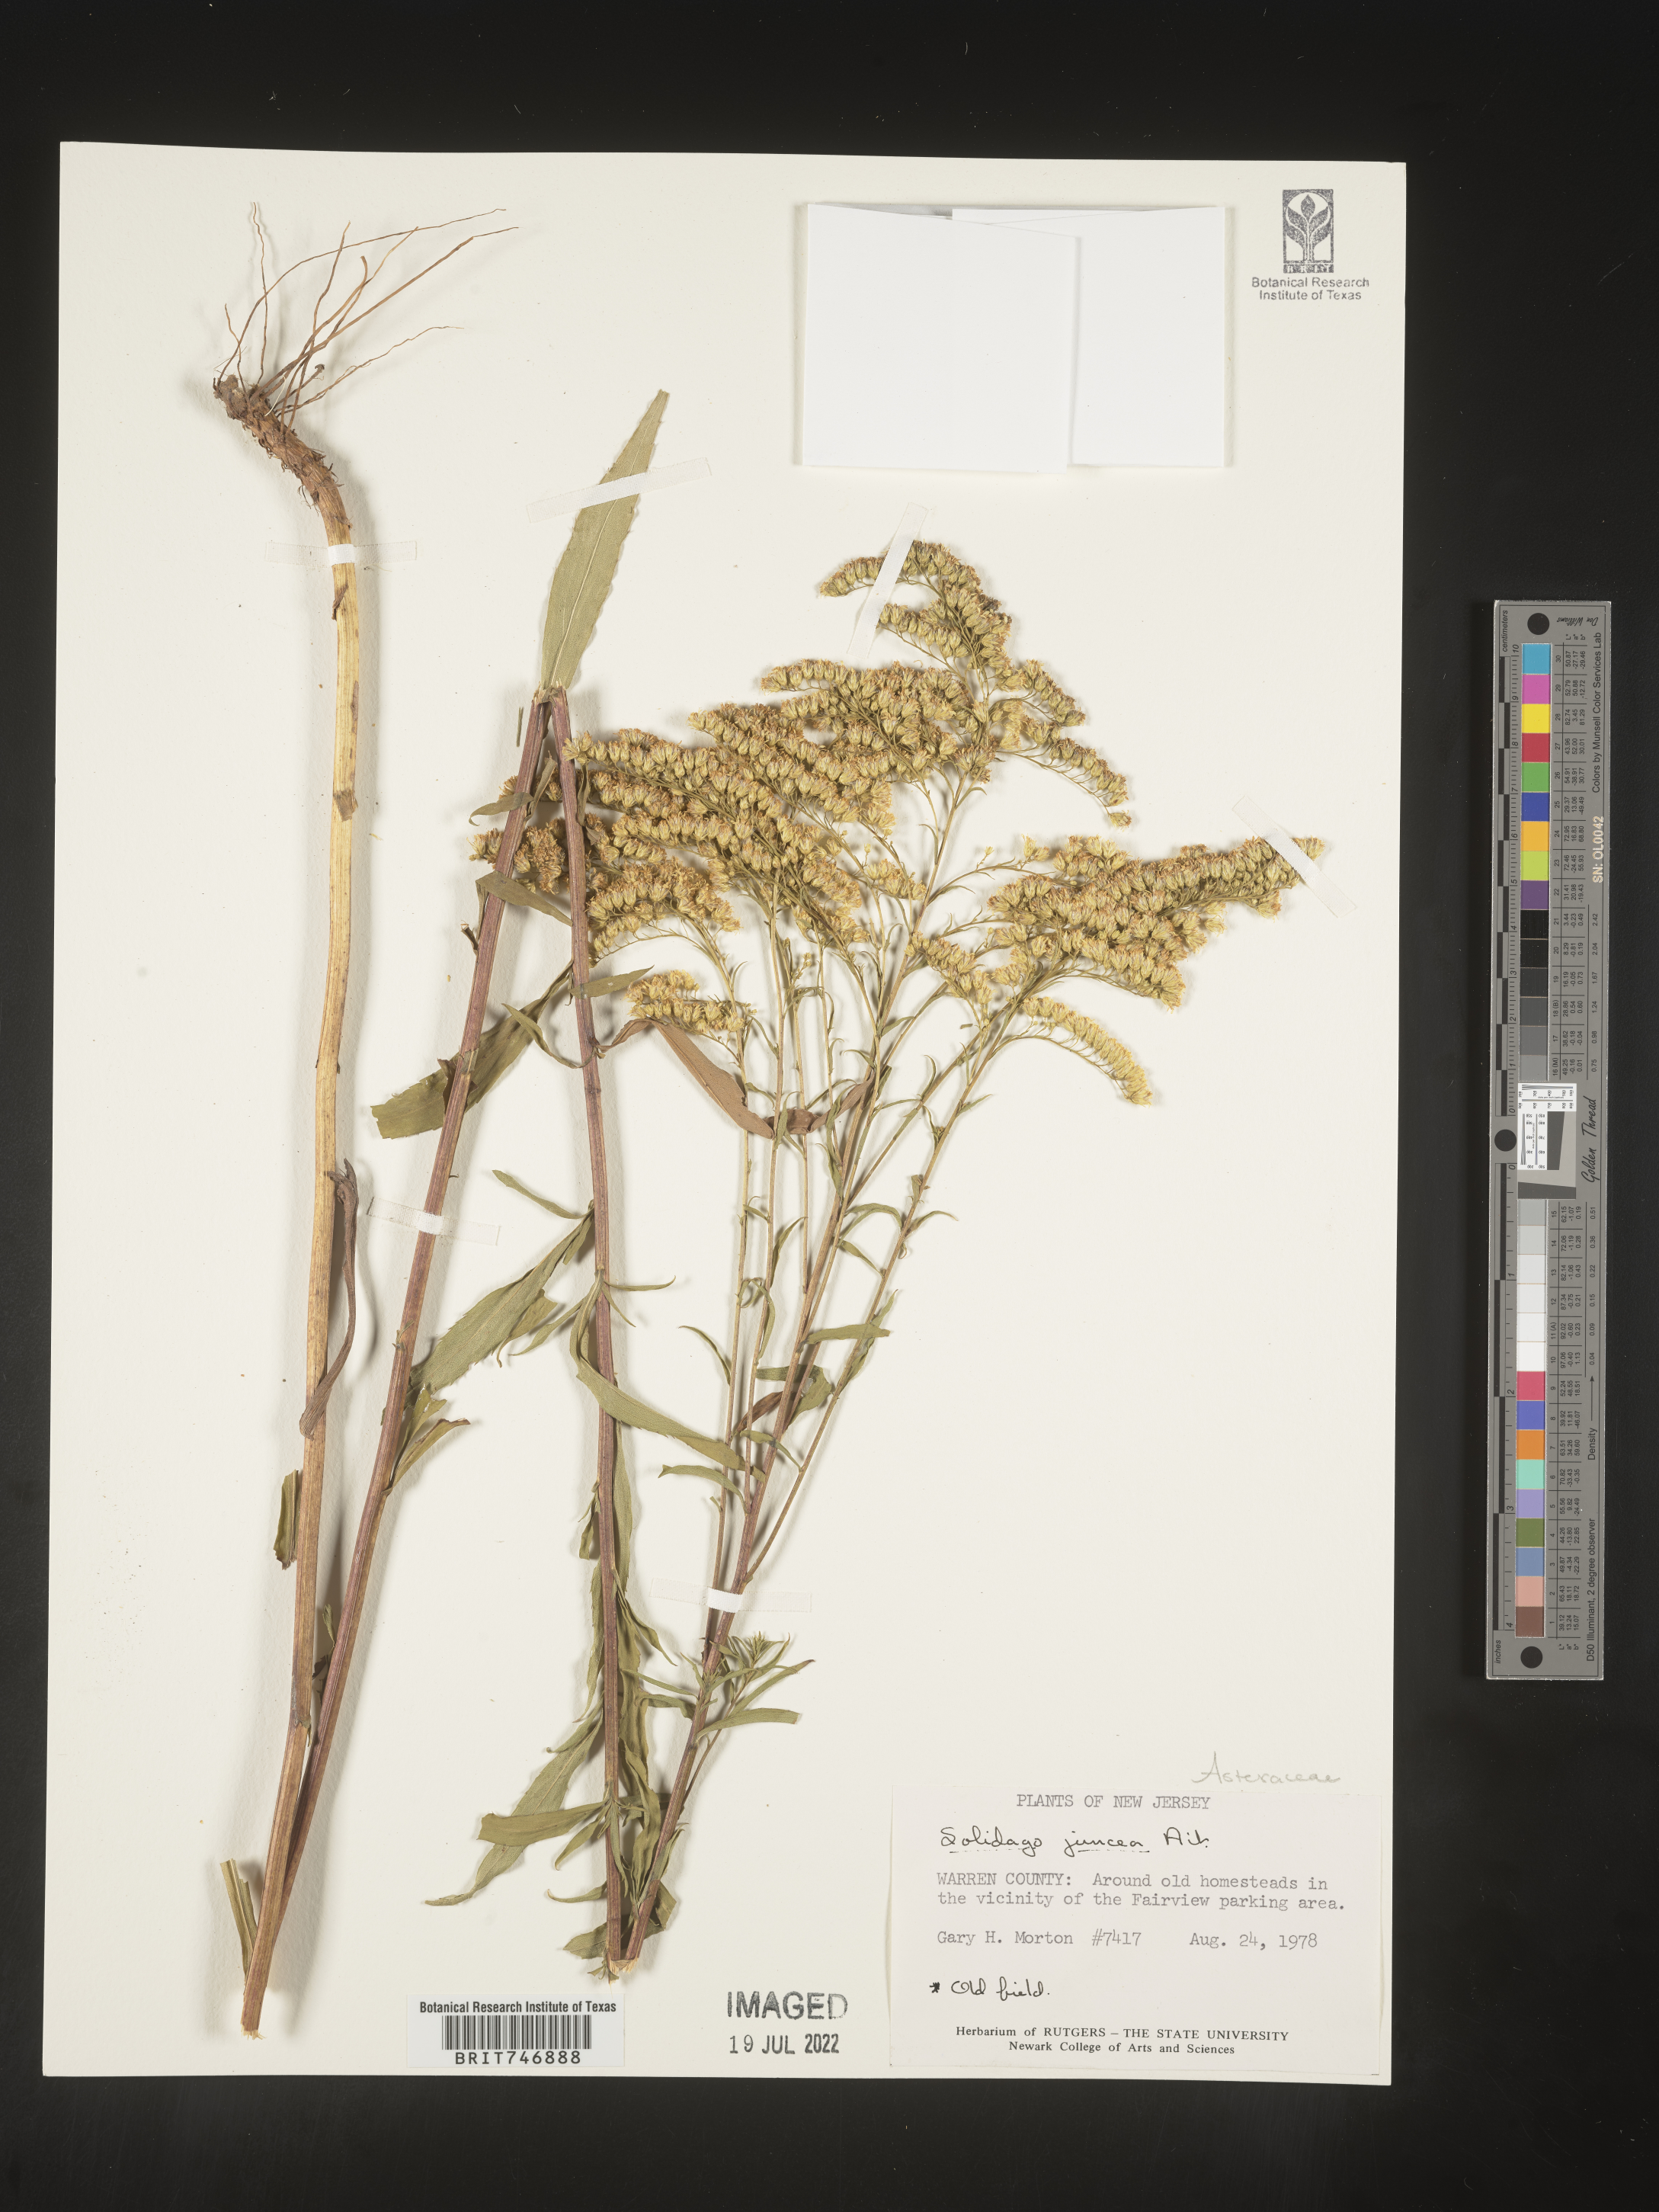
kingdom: Plantae
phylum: Tracheophyta
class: Magnoliopsida
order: Asterales
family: Asteraceae
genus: Solidago
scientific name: Solidago juncea
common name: Early goldenrod
